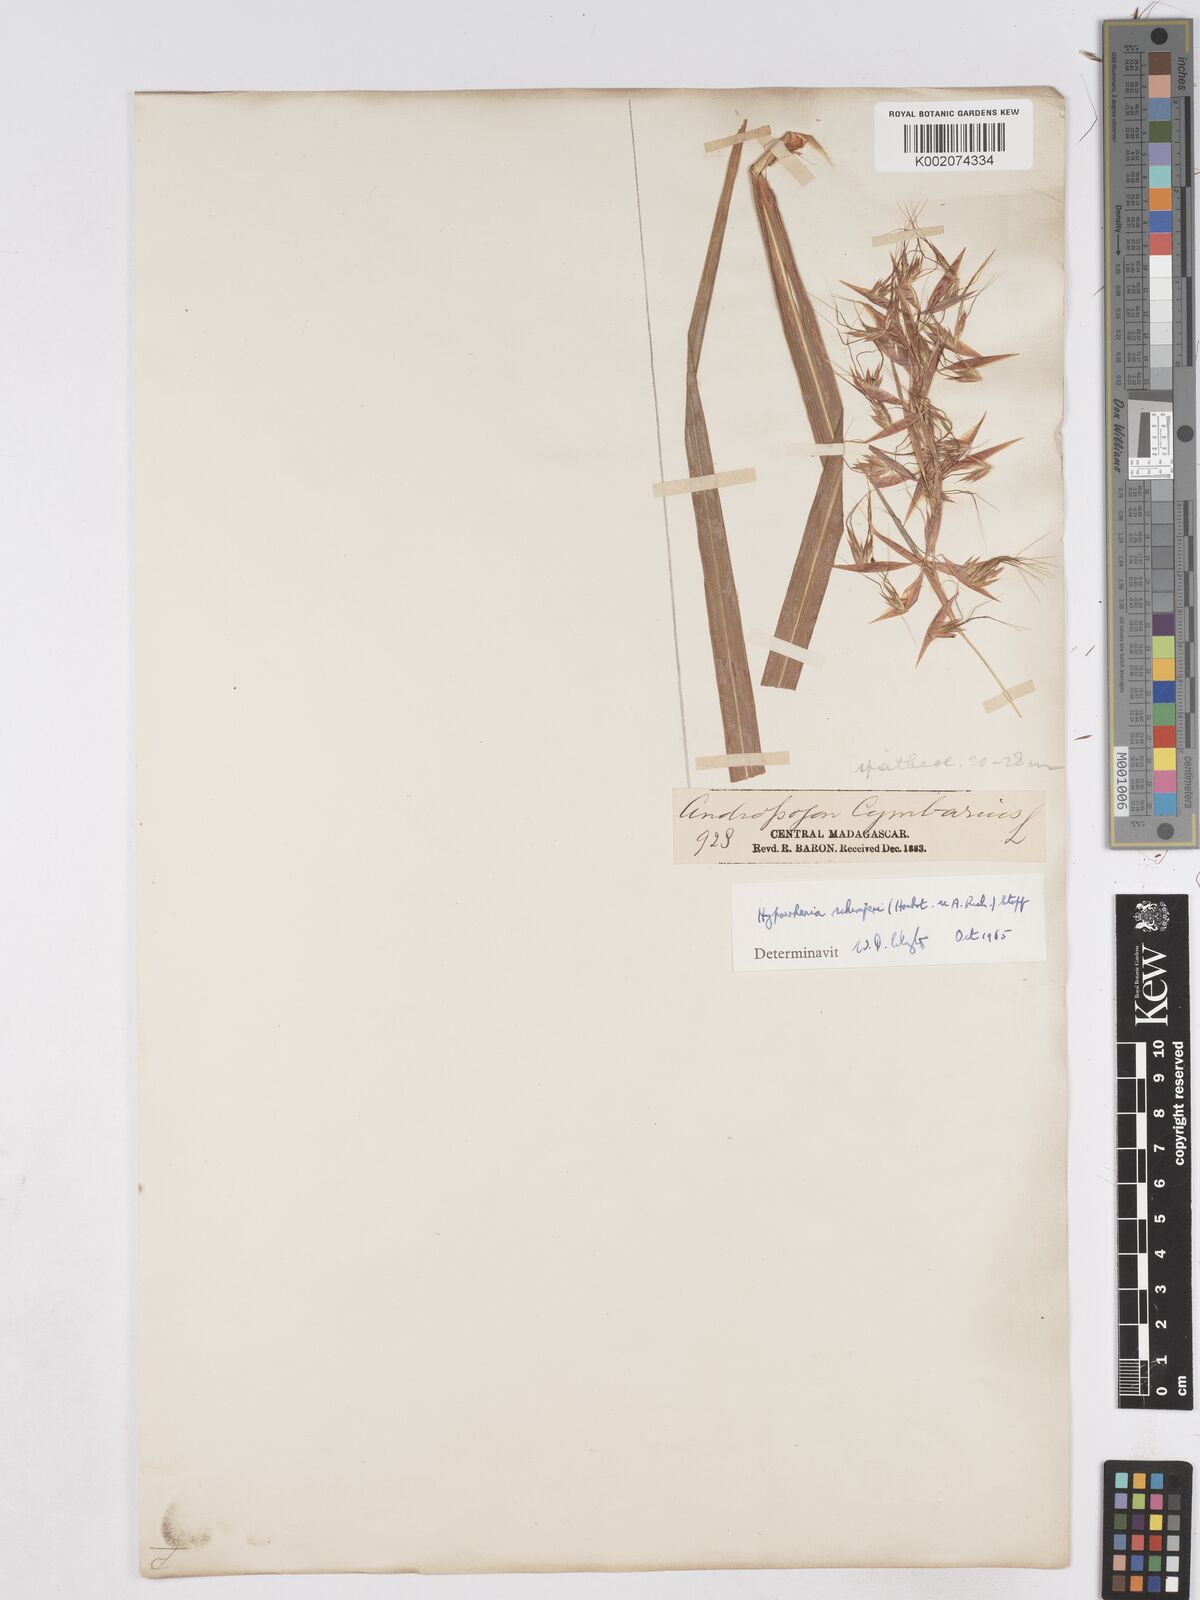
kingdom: Plantae
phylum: Tracheophyta
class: Liliopsida
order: Poales
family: Poaceae
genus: Hyparrhenia
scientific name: Hyparrhenia variabilis
